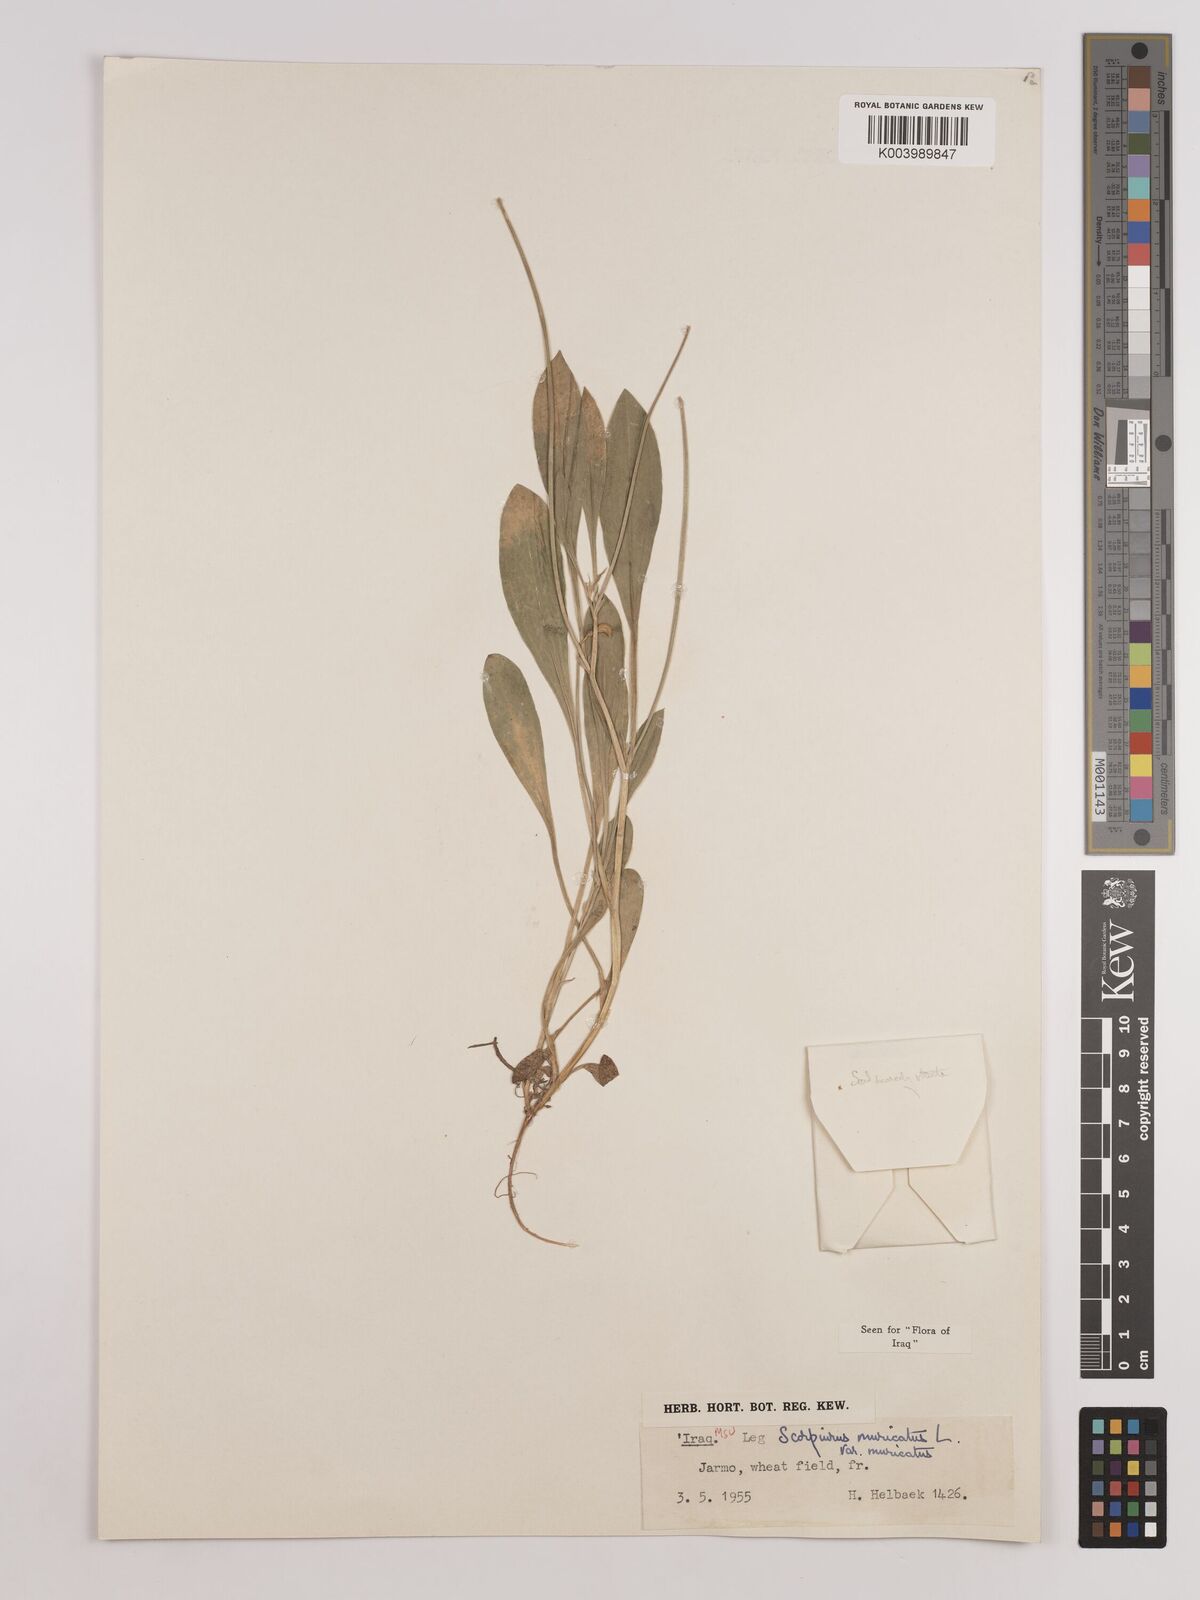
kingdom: Plantae
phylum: Tracheophyta
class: Magnoliopsida
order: Fabales
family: Fabaceae
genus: Scorpiurus
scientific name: Scorpiurus muricatus
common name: Caterpillar-plant
